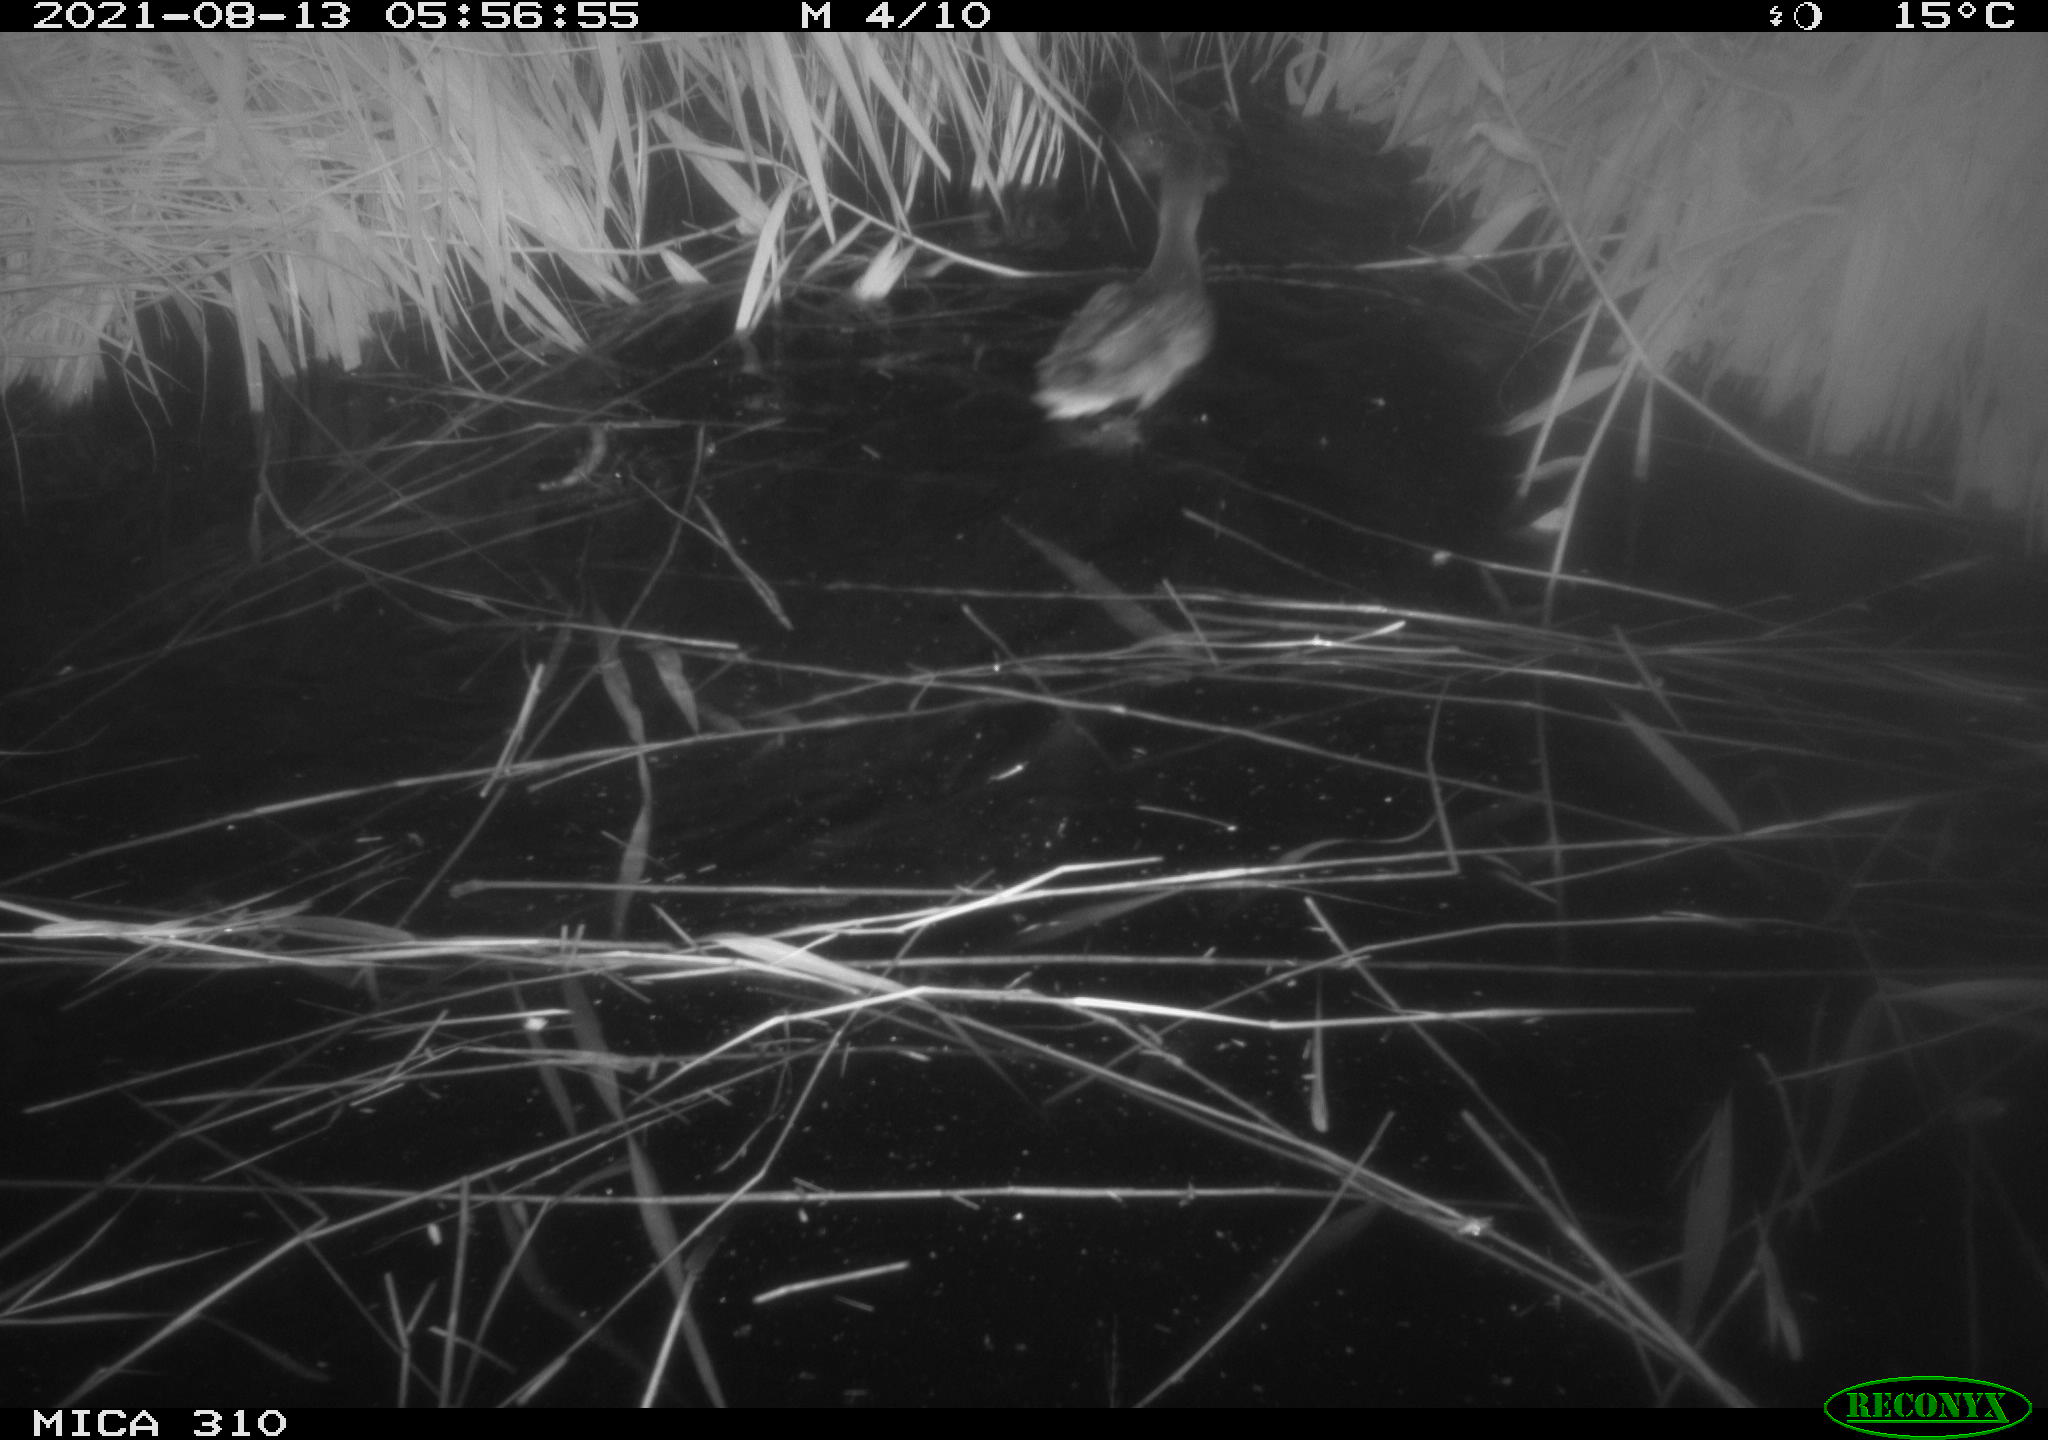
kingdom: Animalia
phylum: Chordata
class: Aves
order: Anseriformes
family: Anatidae
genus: Anas
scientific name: Anas platyrhynchos
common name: Mallard
